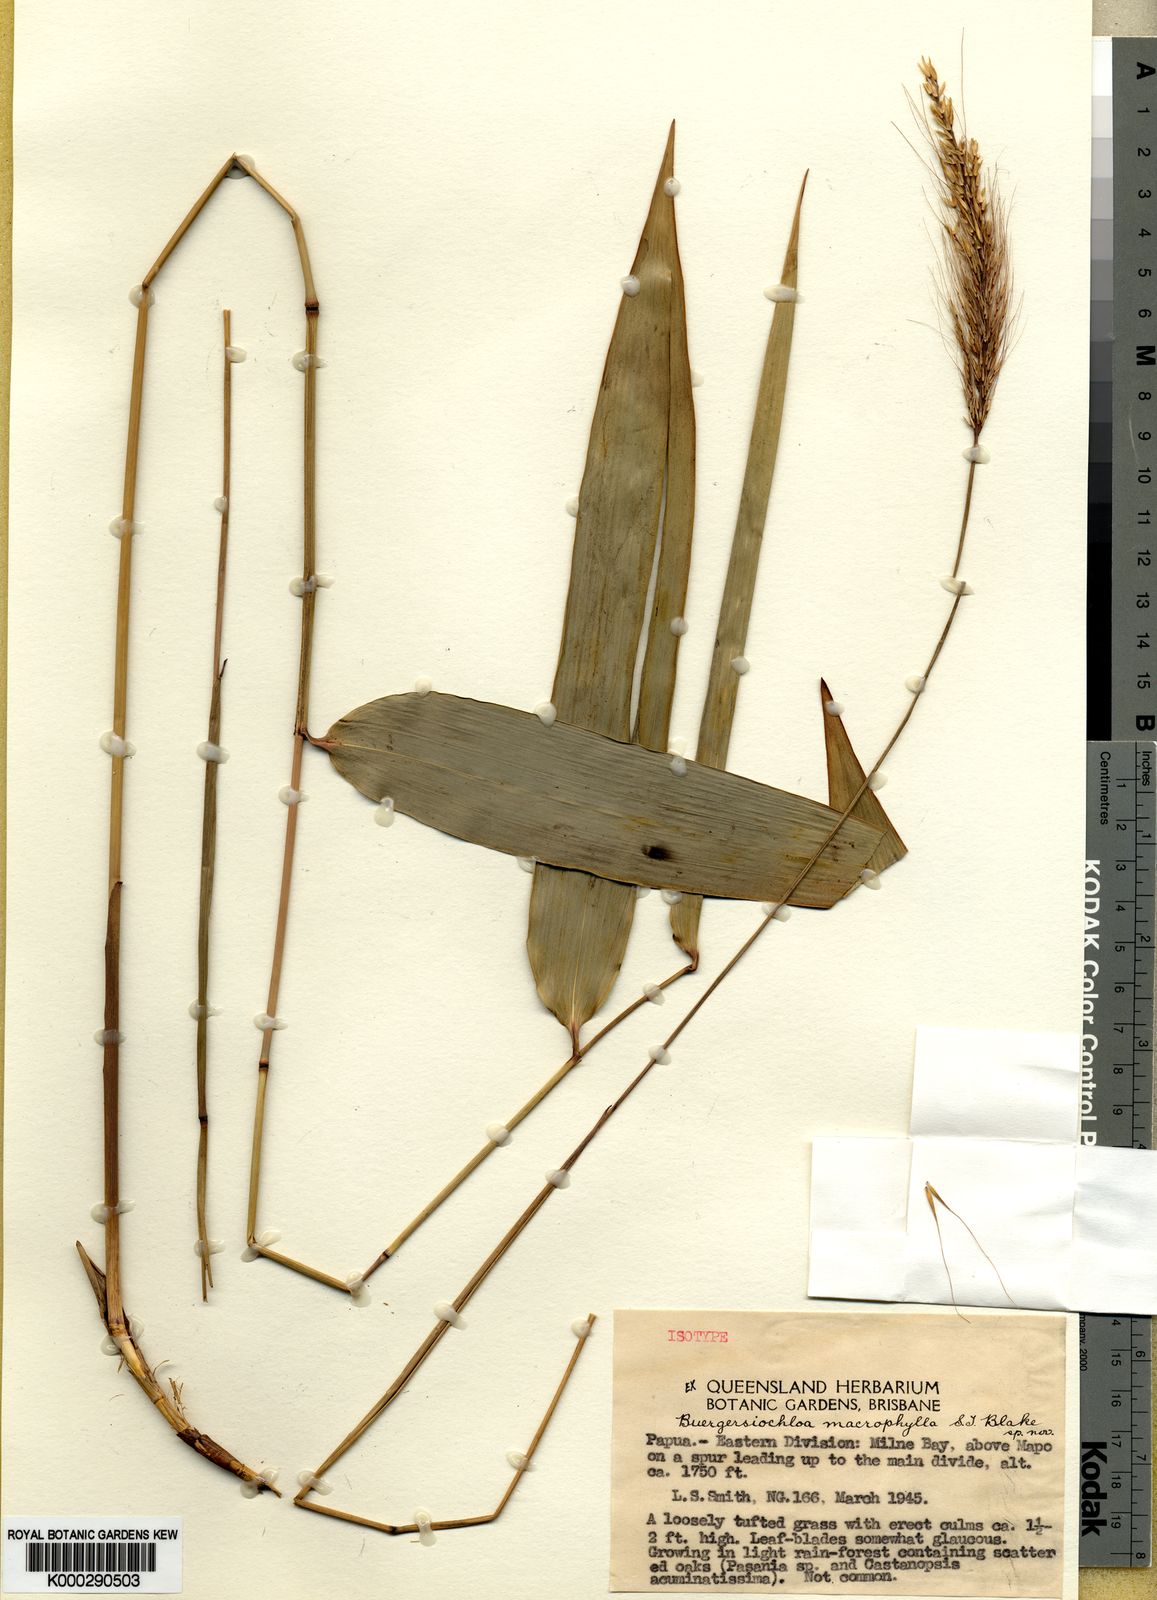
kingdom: Plantae
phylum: Tracheophyta
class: Liliopsida
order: Poales
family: Poaceae
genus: Buergersiochloa
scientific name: Buergersiochloa bambusoides
